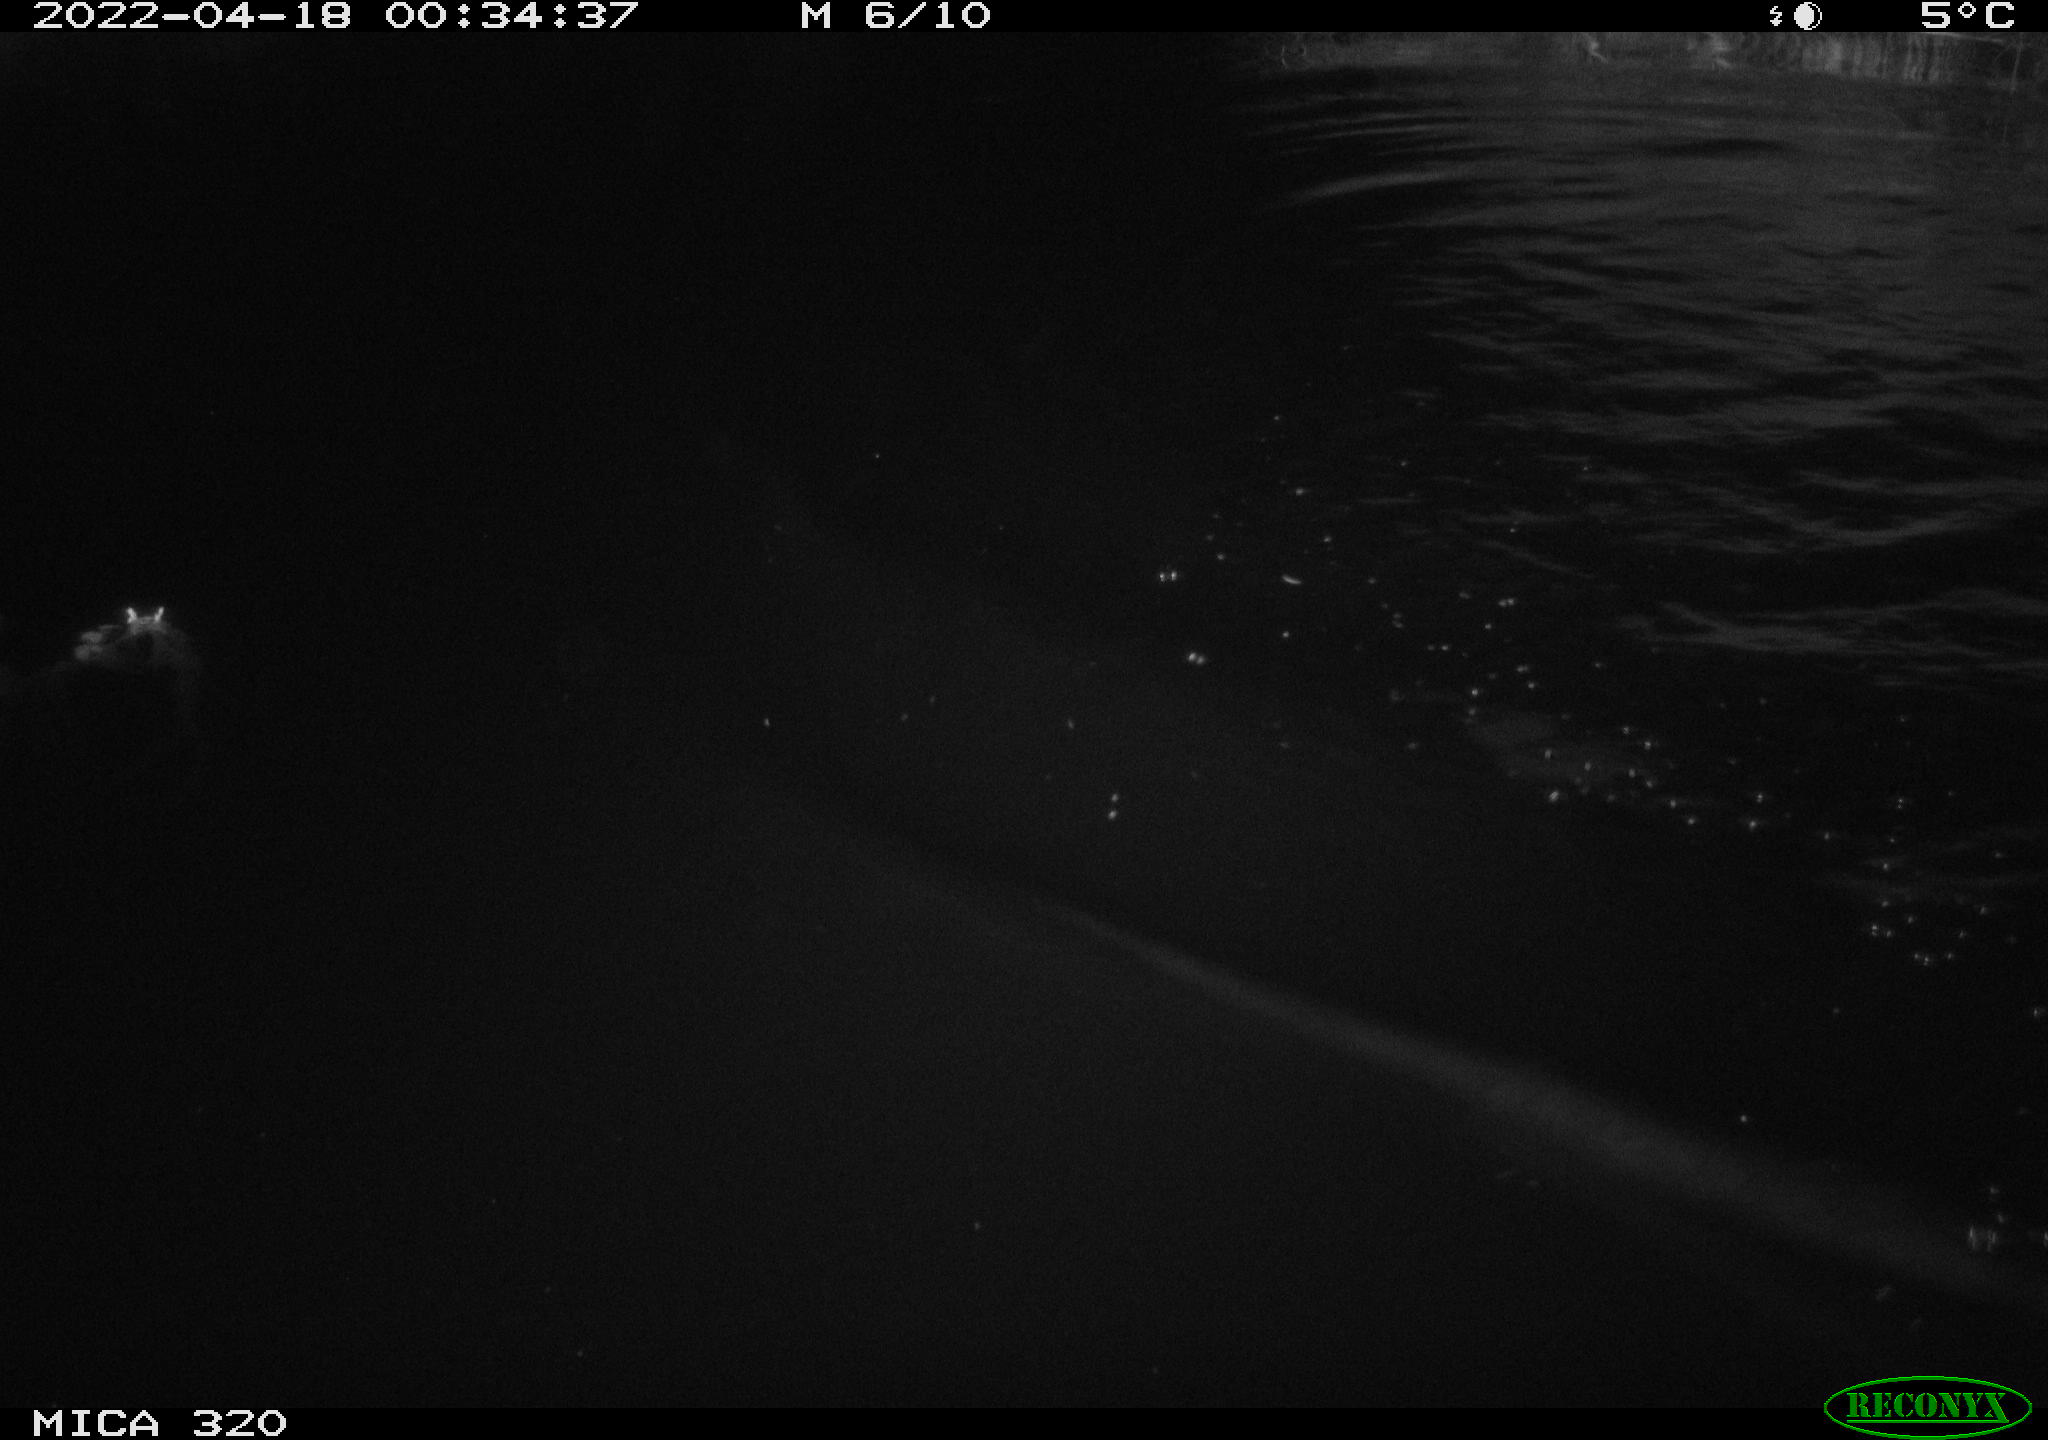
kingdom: Animalia
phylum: Chordata
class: Aves
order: Anseriformes
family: Anatidae
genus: Anas
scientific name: Anas platyrhynchos
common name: Mallard
